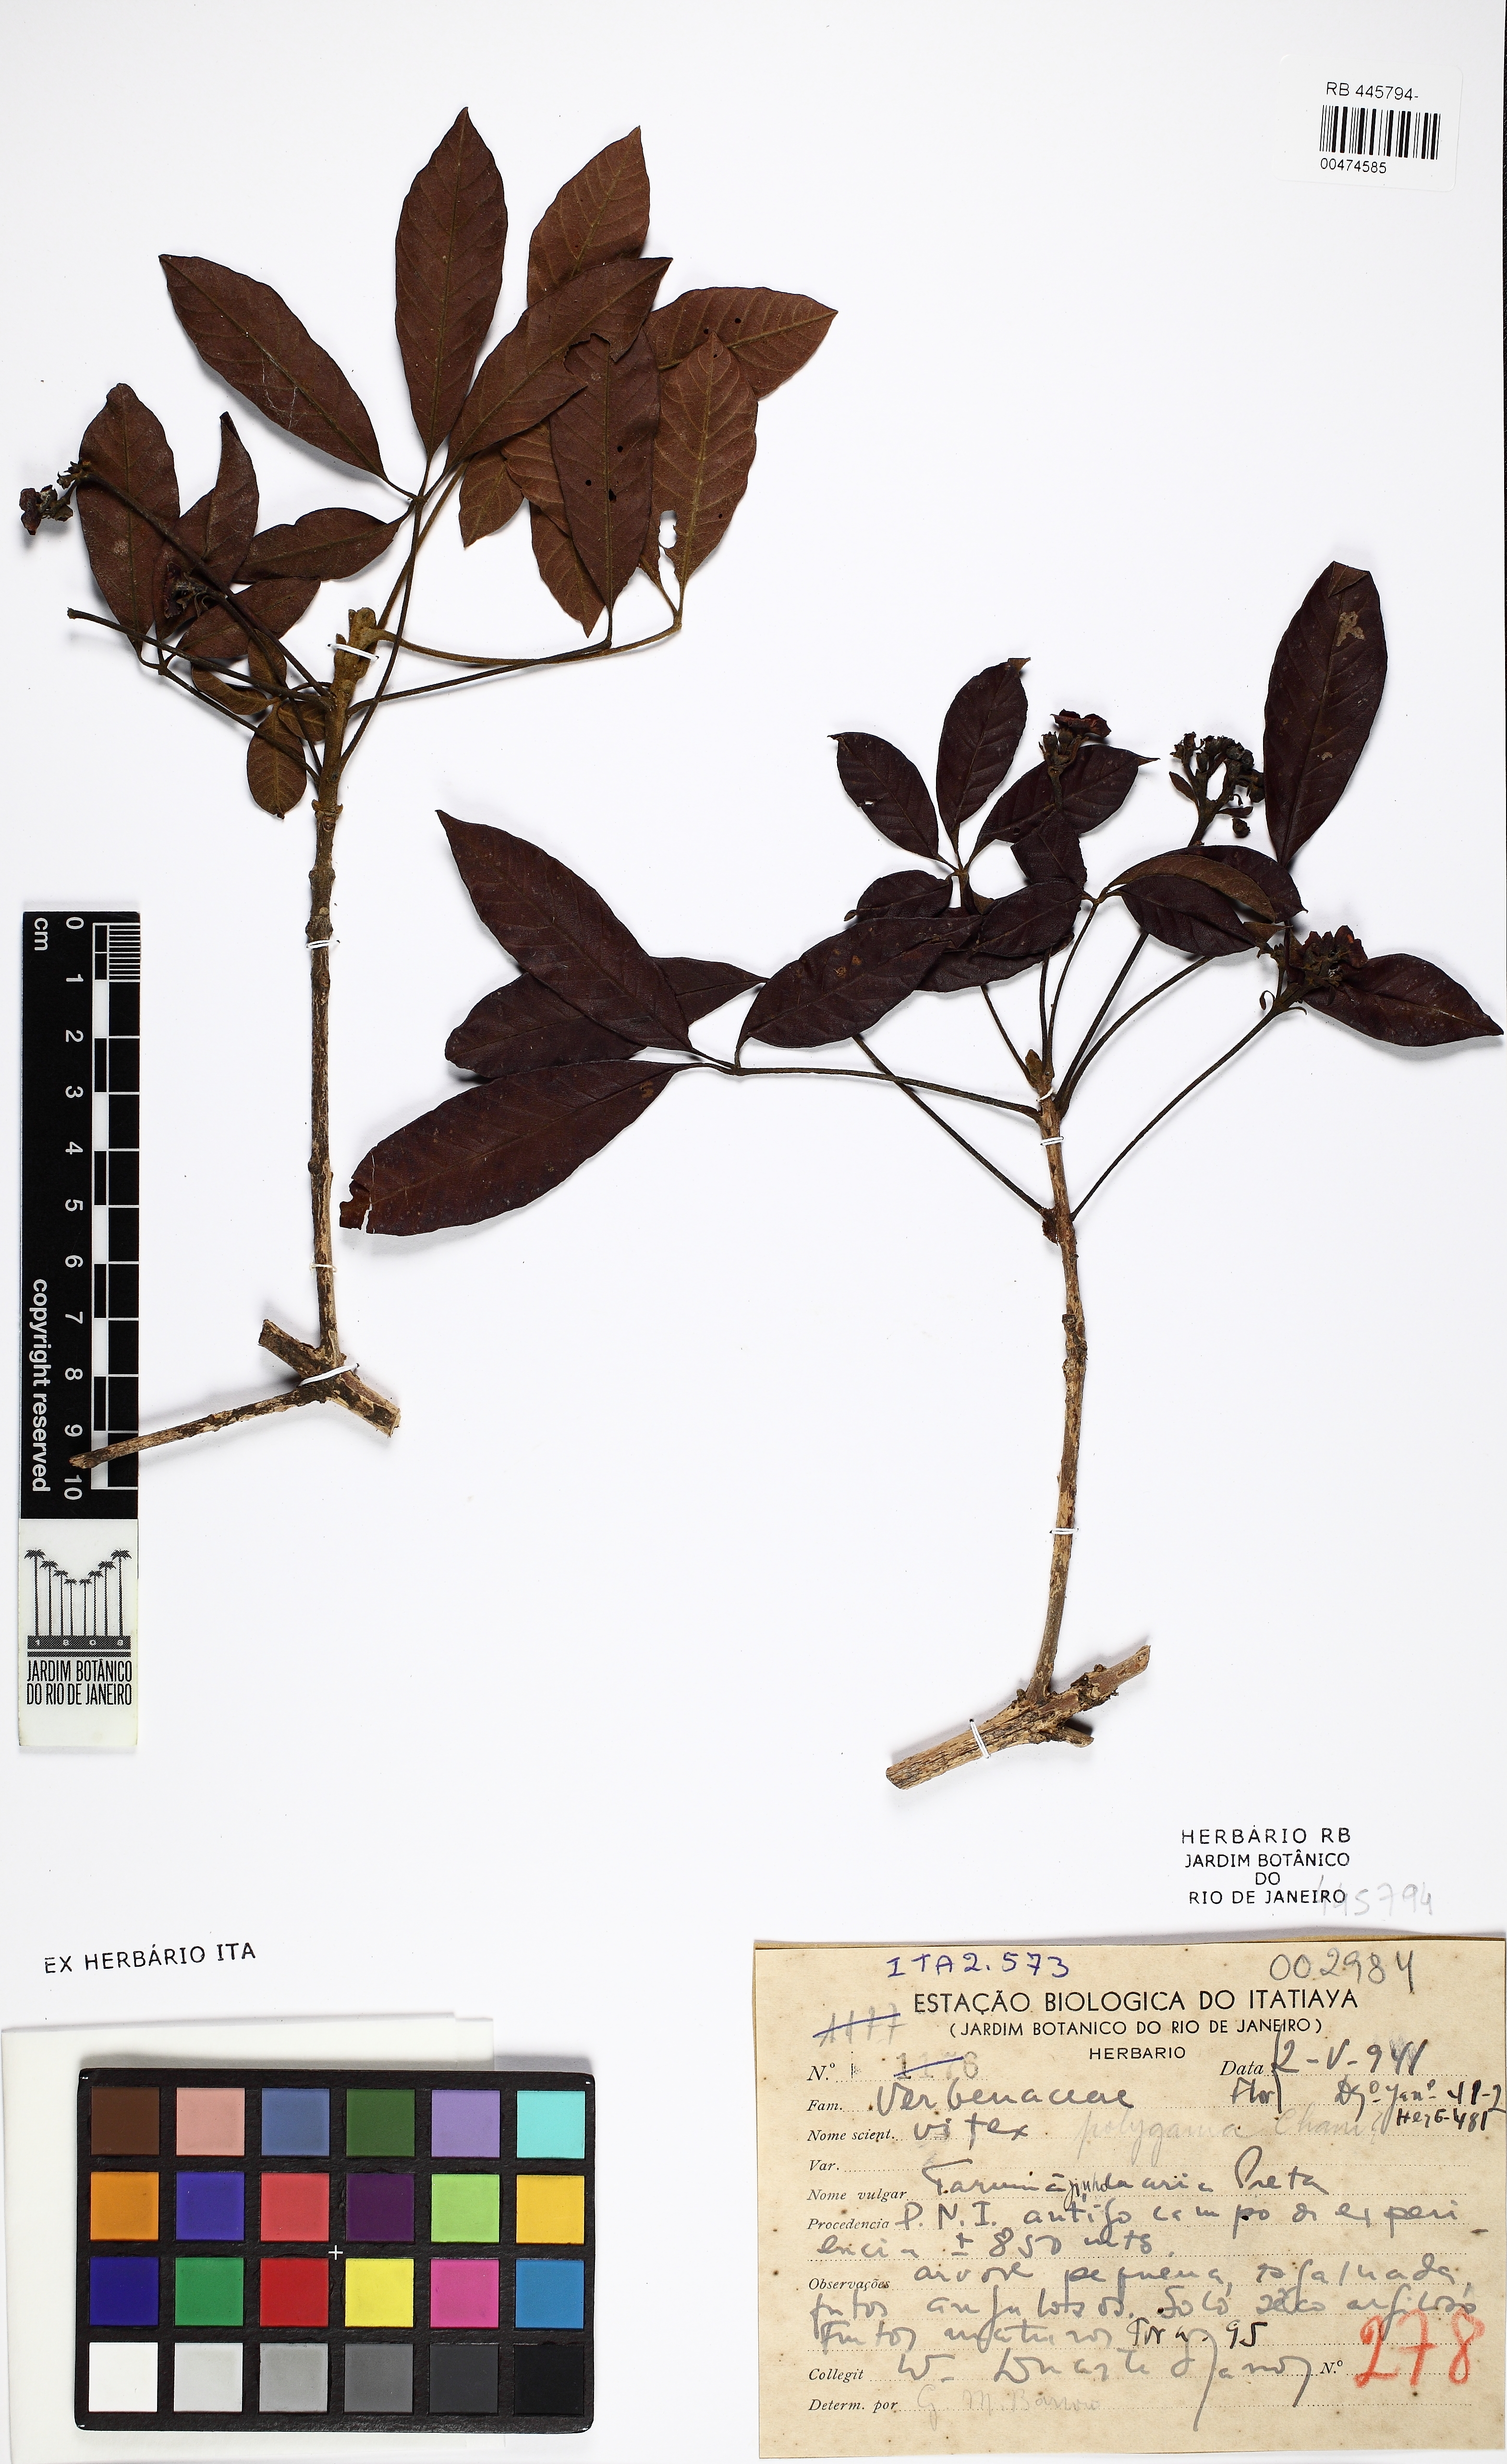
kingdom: Plantae
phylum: Tracheophyta
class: Magnoliopsida
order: Lamiales
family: Lamiaceae
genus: Vitex
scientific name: Vitex polygama
